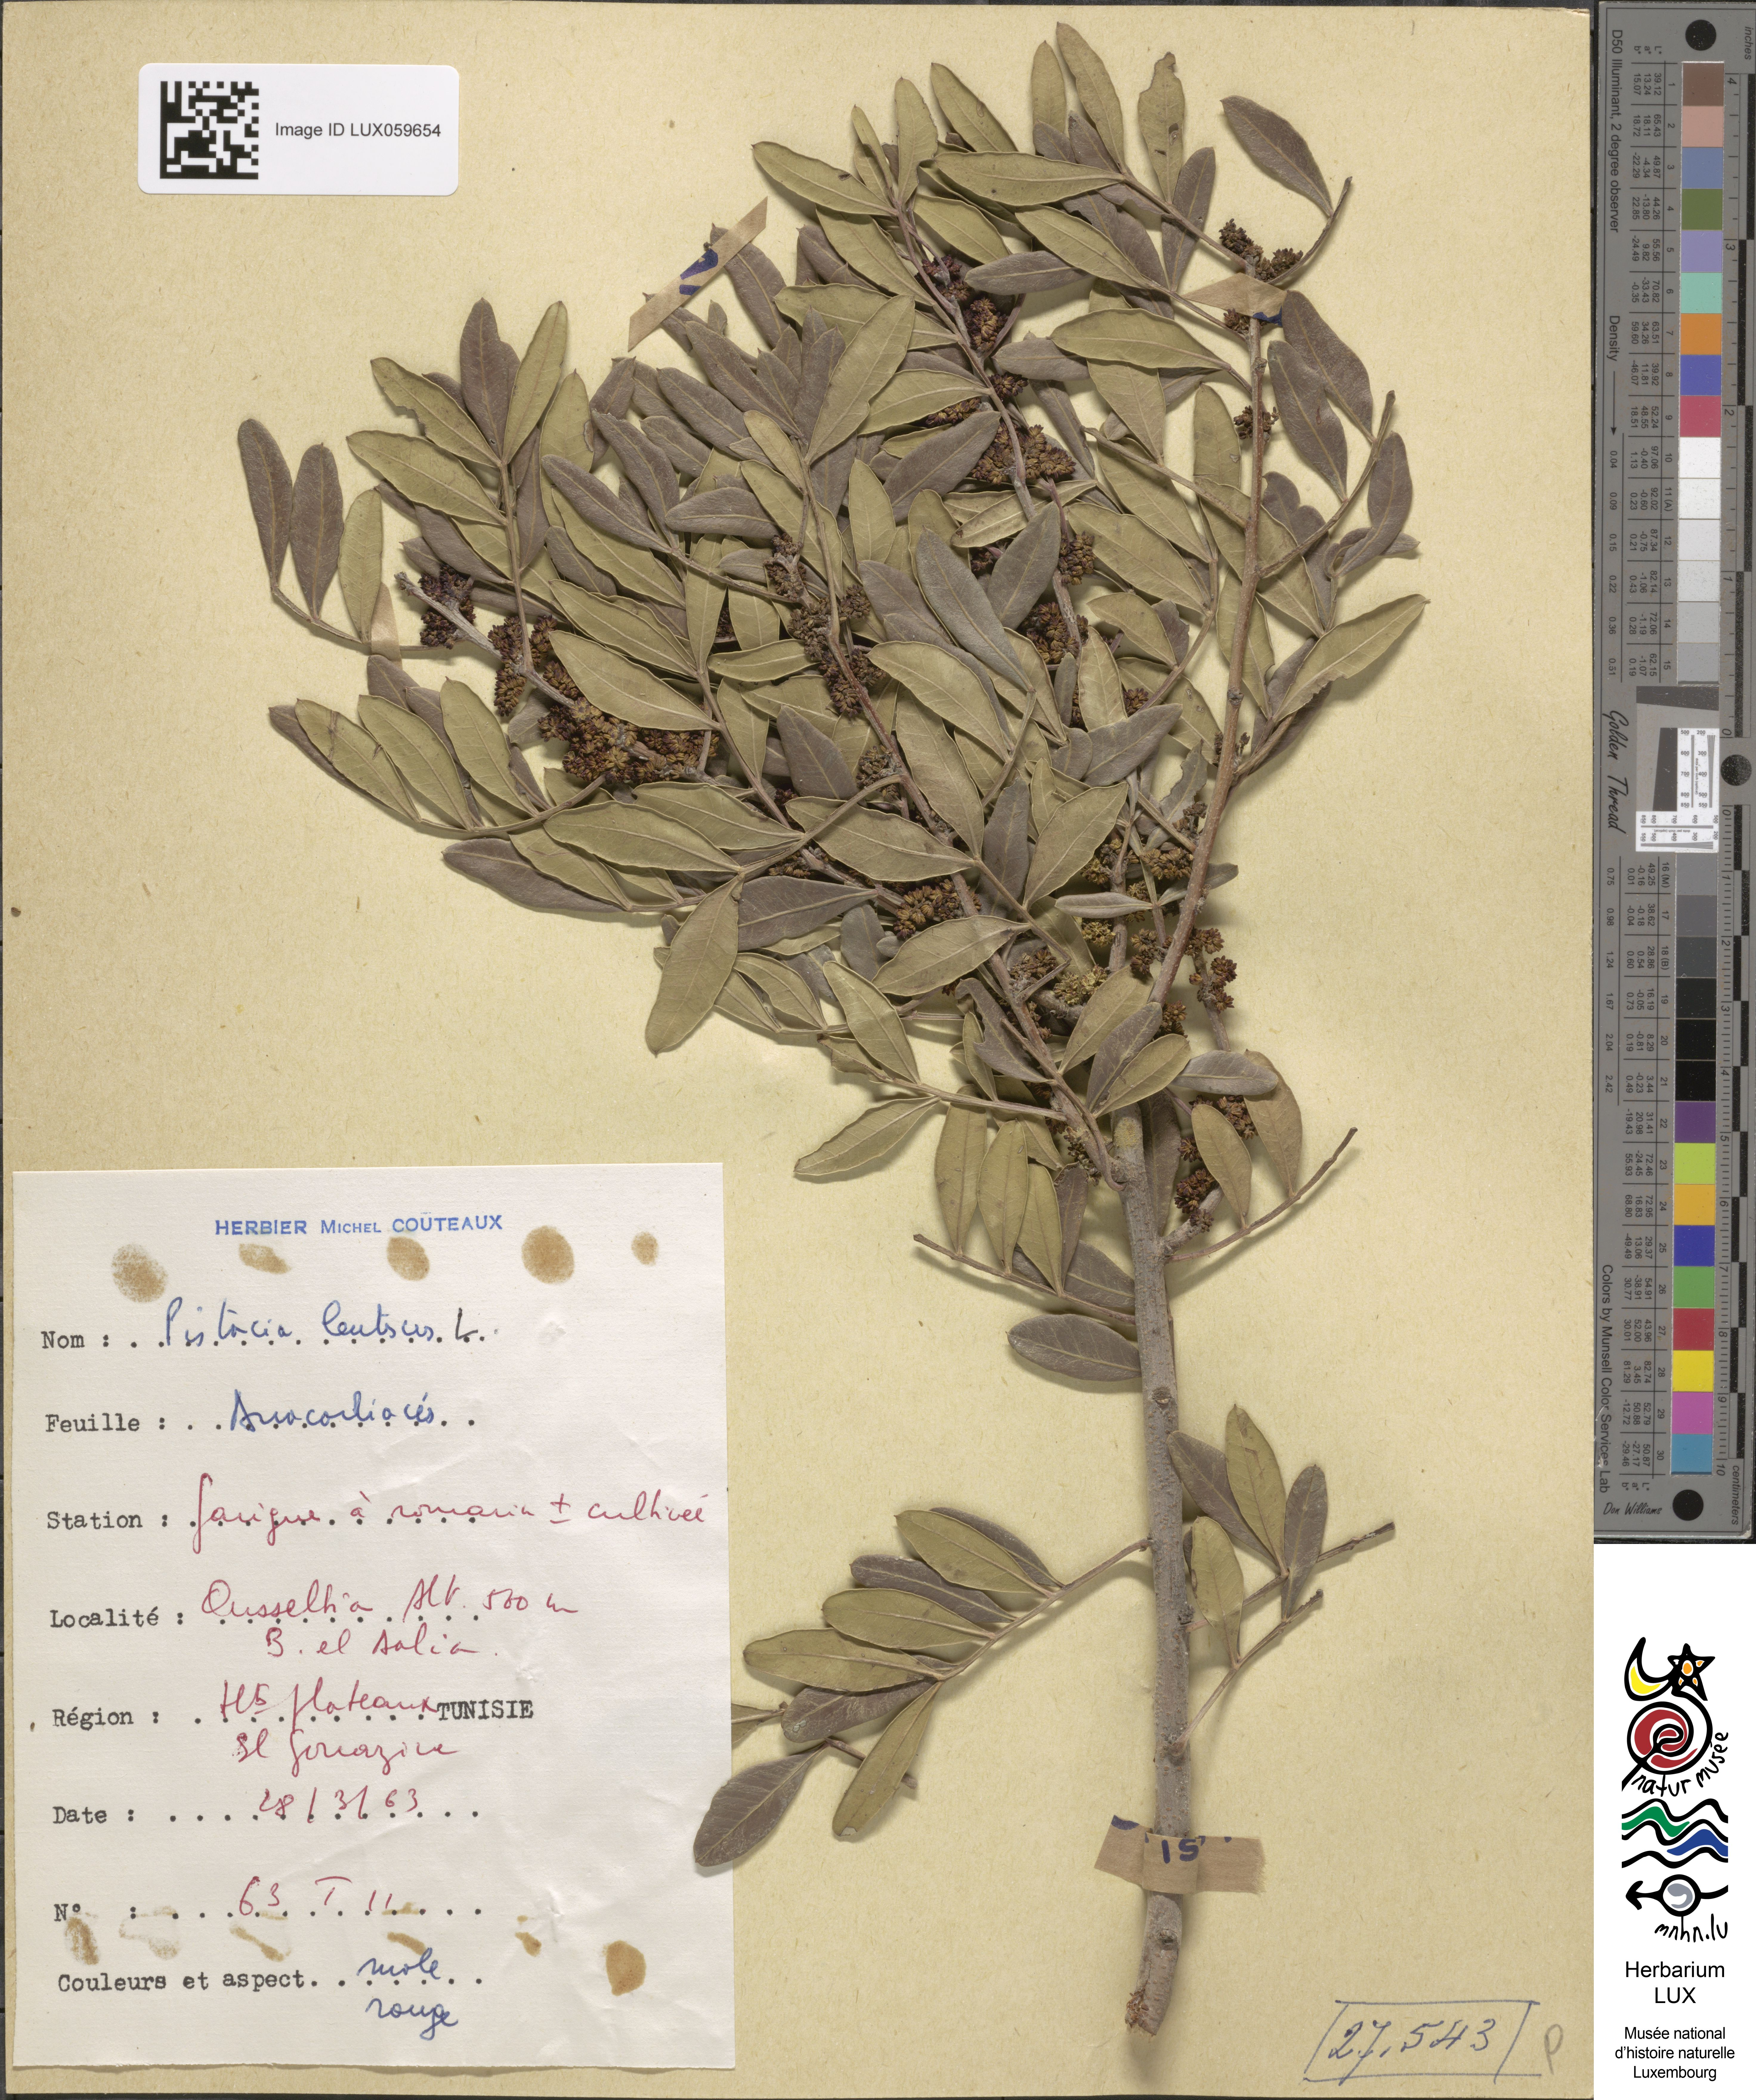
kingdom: Plantae
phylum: Tracheophyta
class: Magnoliopsida
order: Sapindales
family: Anacardiaceae
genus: Pistacia
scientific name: Pistacia lentiscus
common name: Lentisk
